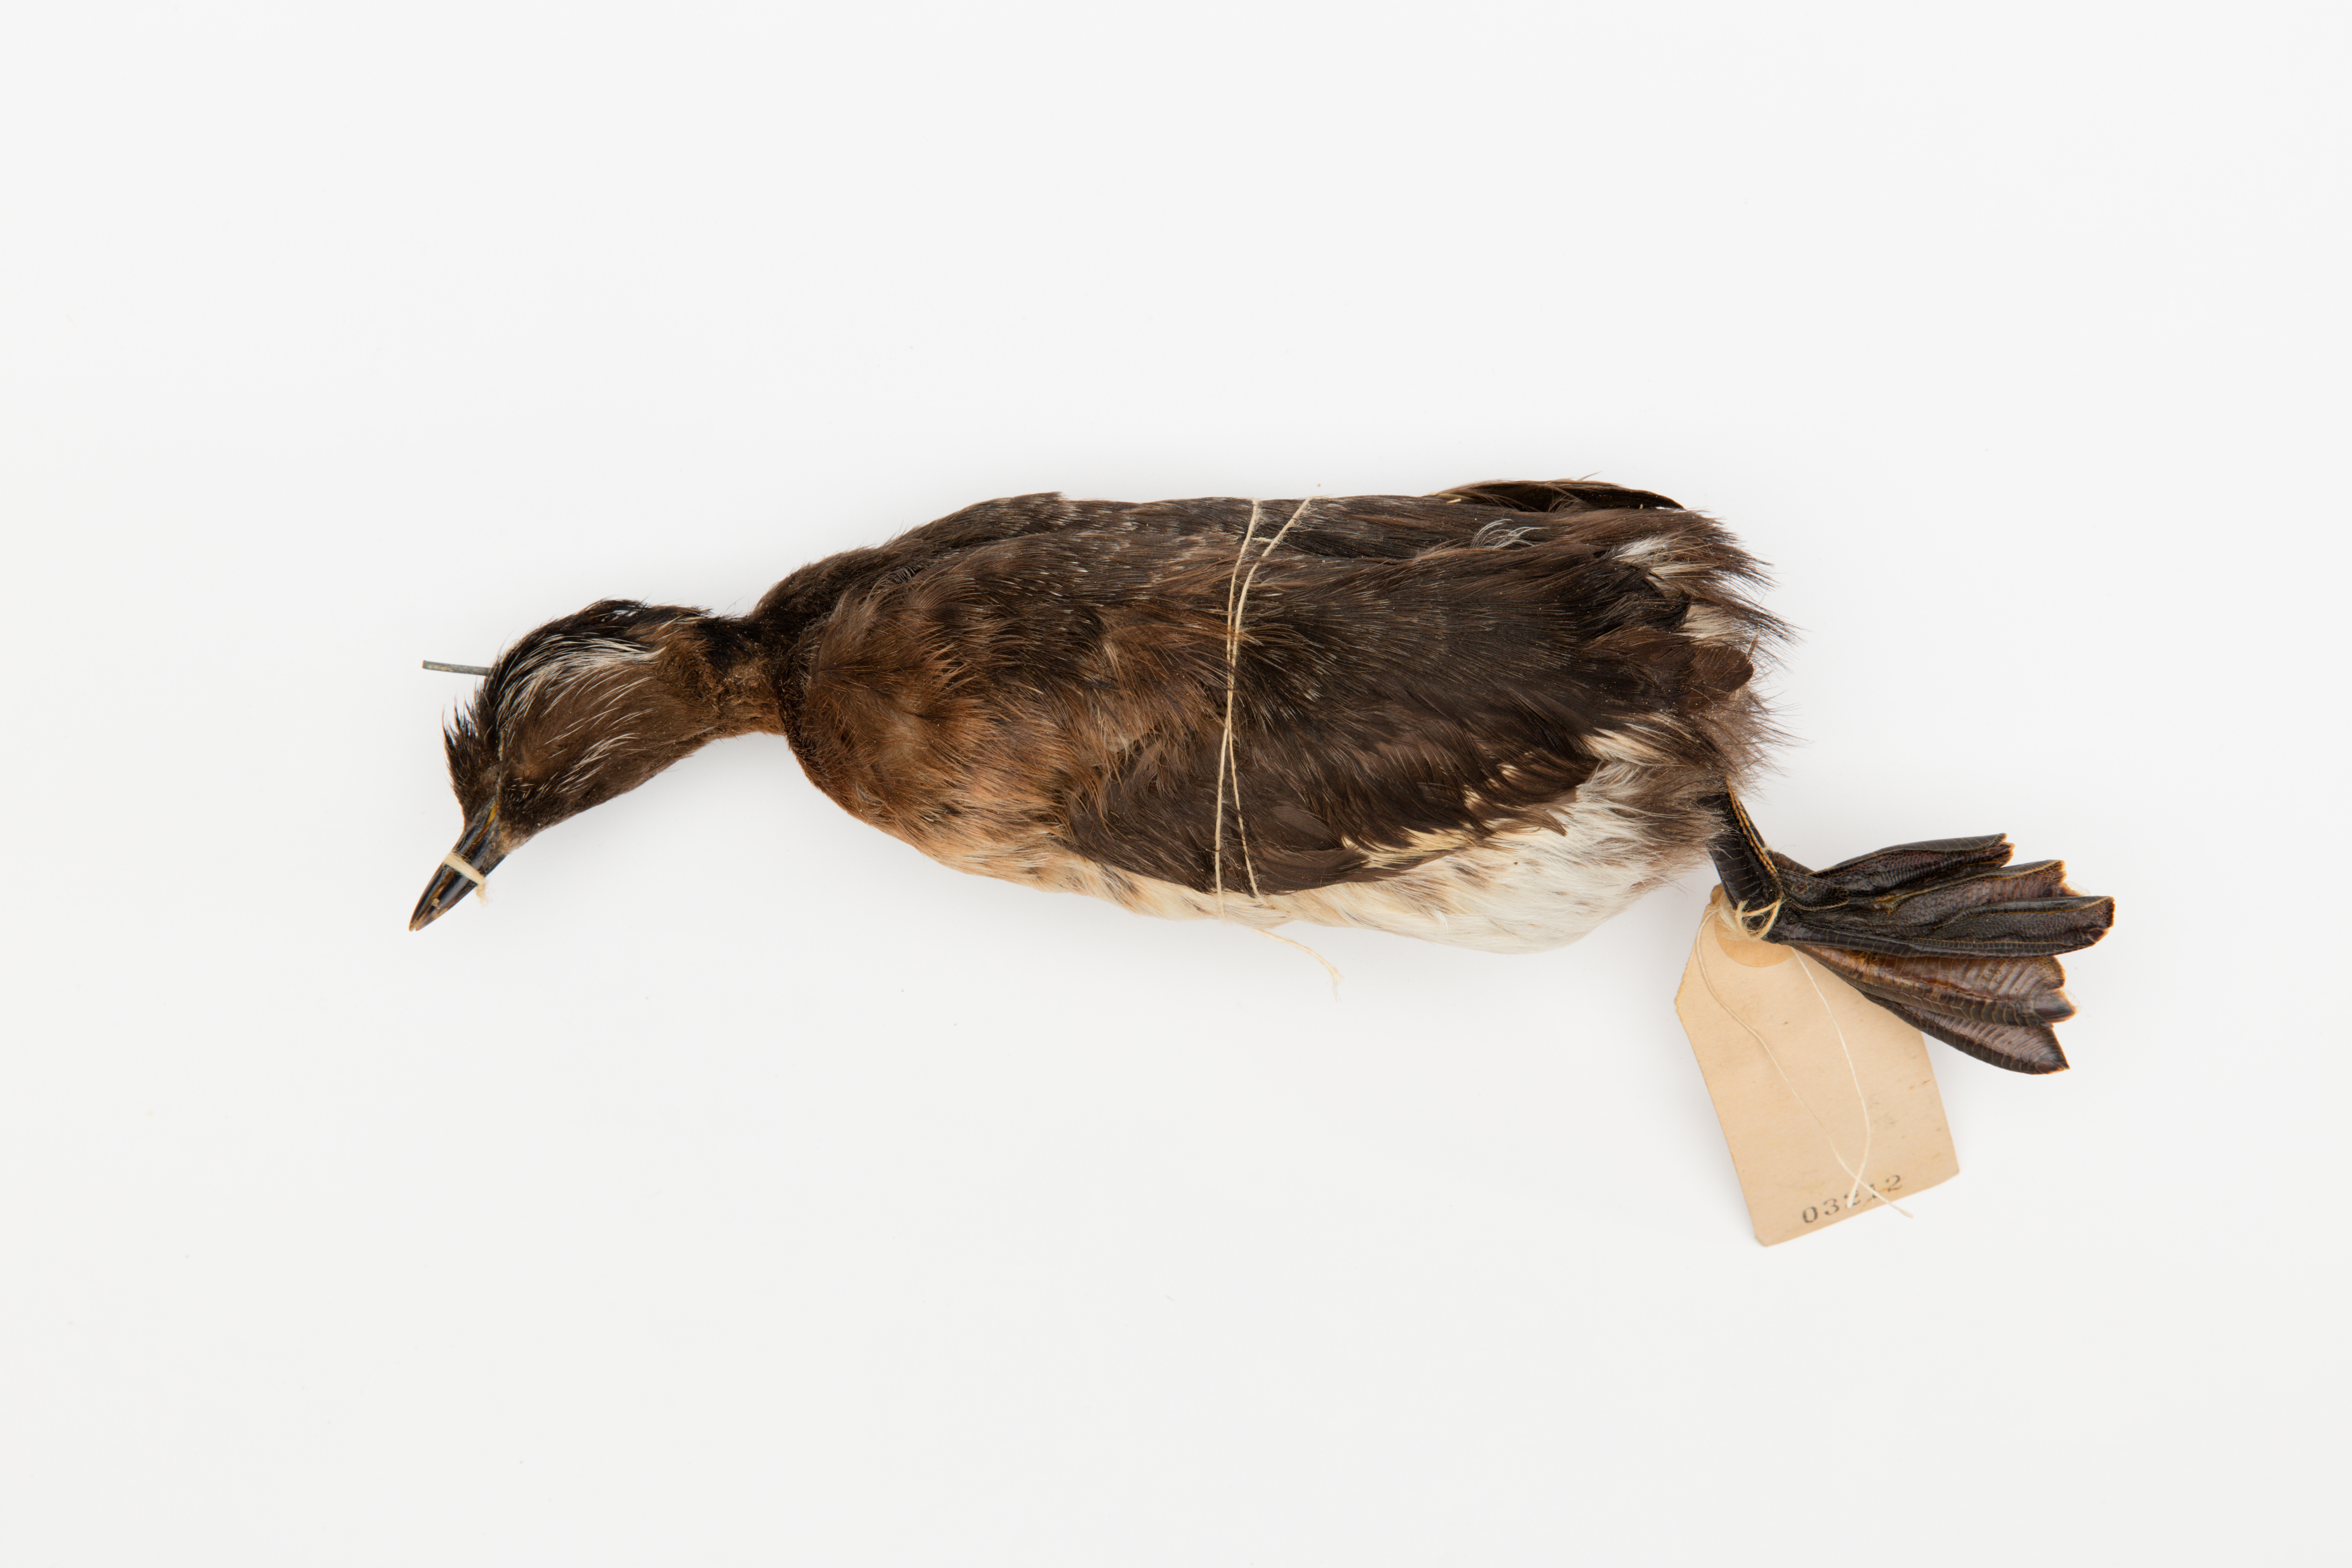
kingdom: Animalia
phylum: Chordata
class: Aves
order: Podicipediformes
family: Podicipedidae
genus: Poliocephalus
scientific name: Poliocephalus rufopectus
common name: New zealand grebe
